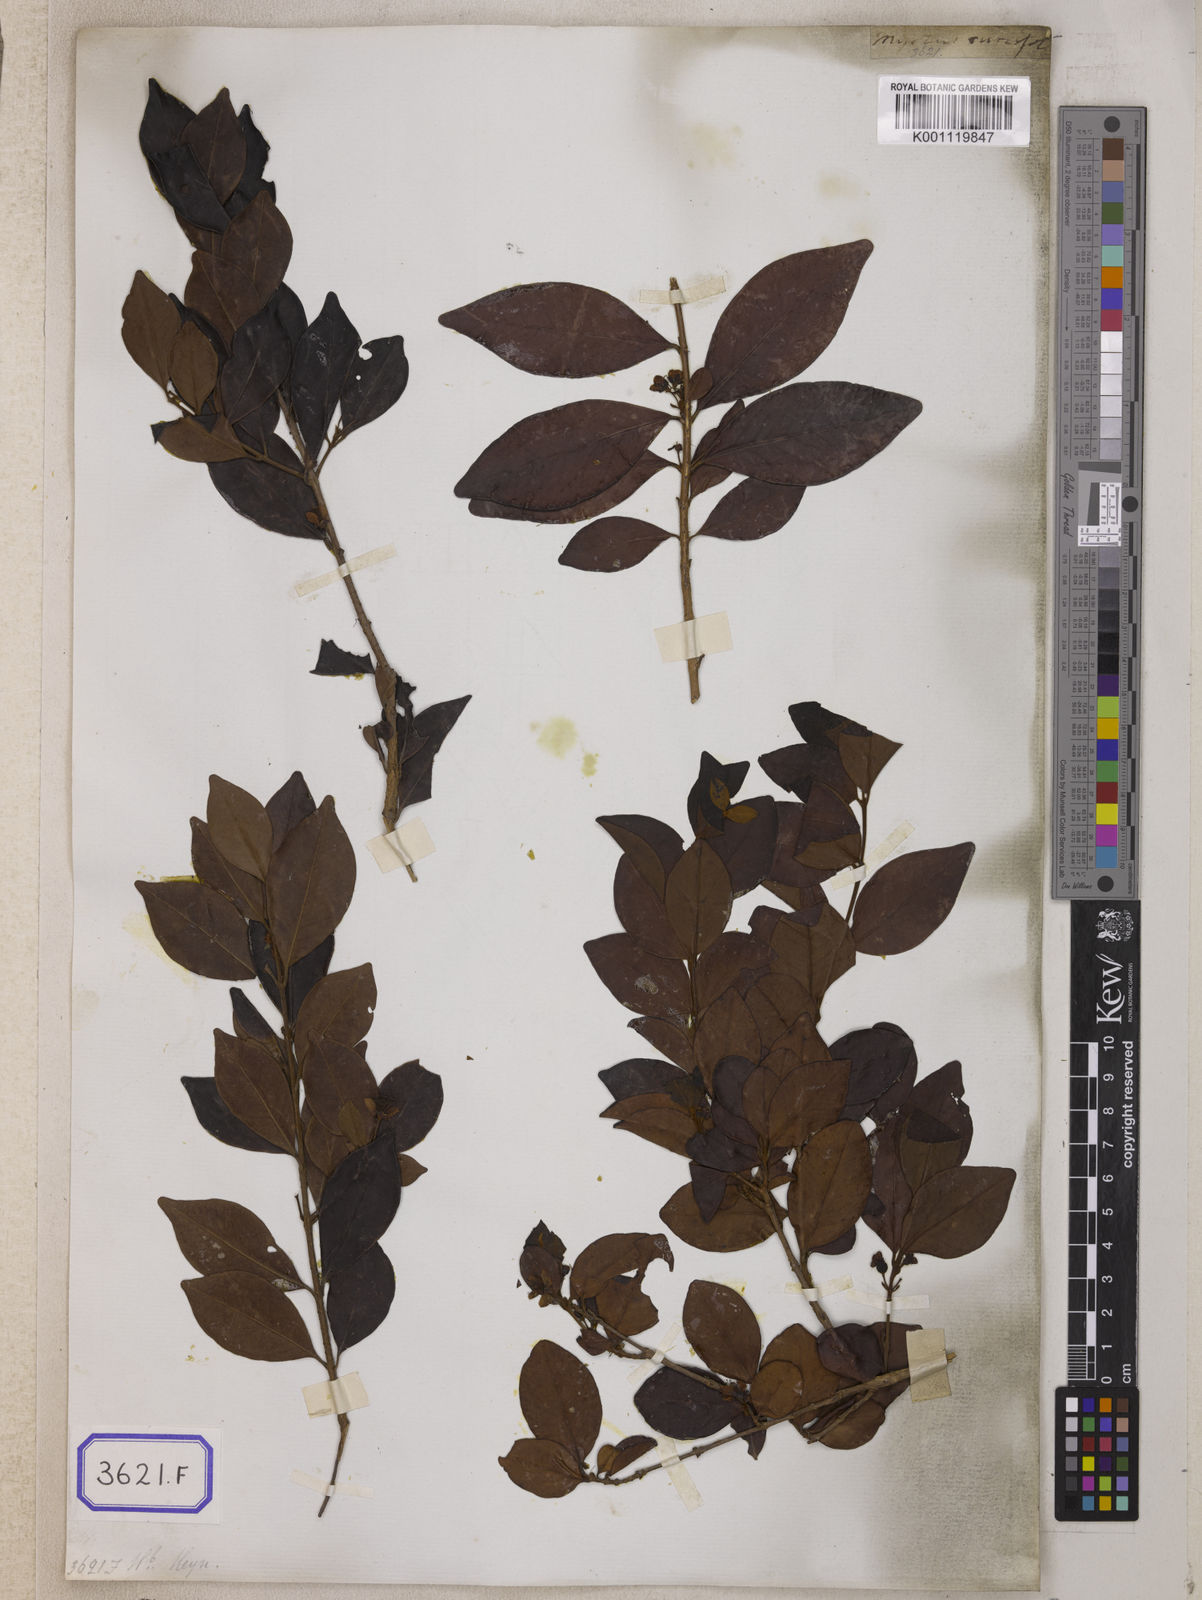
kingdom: Plantae
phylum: Tracheophyta
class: Magnoliopsida
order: Myrtales
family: Myrtaceae
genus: Eugenia
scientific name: Eugenia roxburghii
